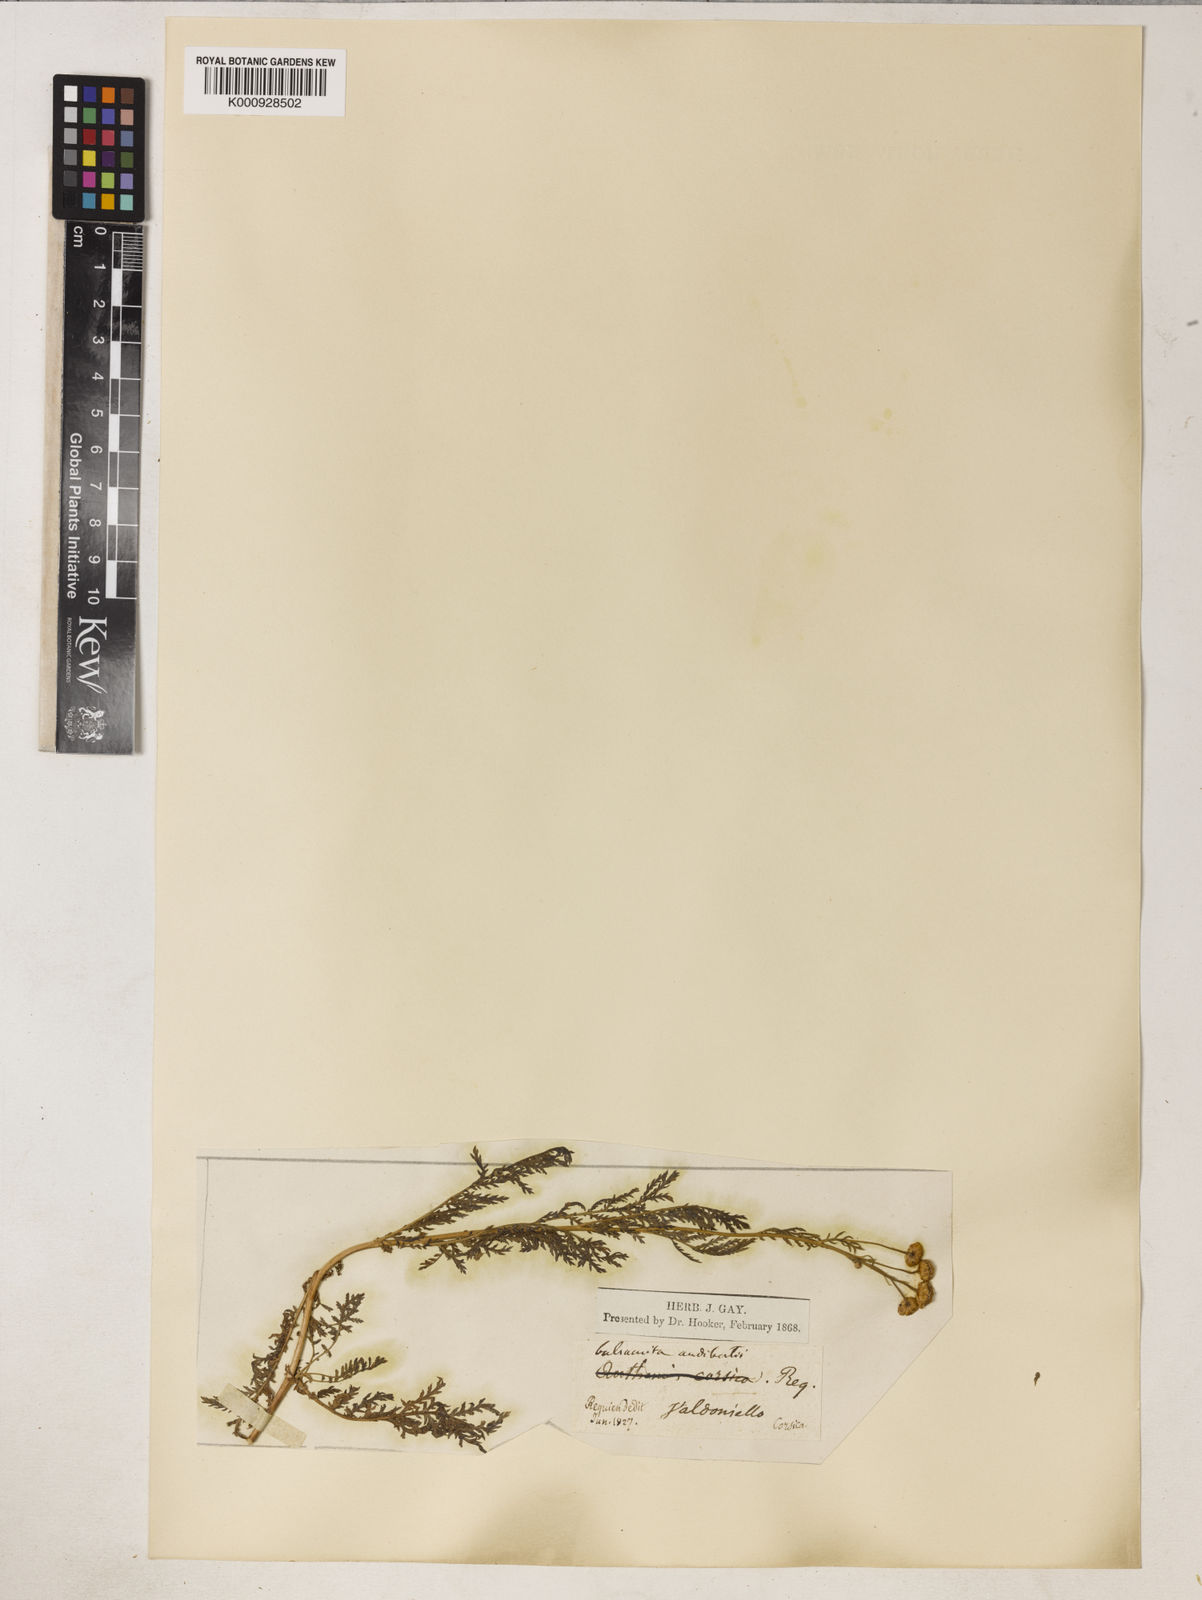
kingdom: Plantae
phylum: Tracheophyta
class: Magnoliopsida
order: Asterales
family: Asteraceae
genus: Tanacetum
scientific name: Tanacetum audibertii
